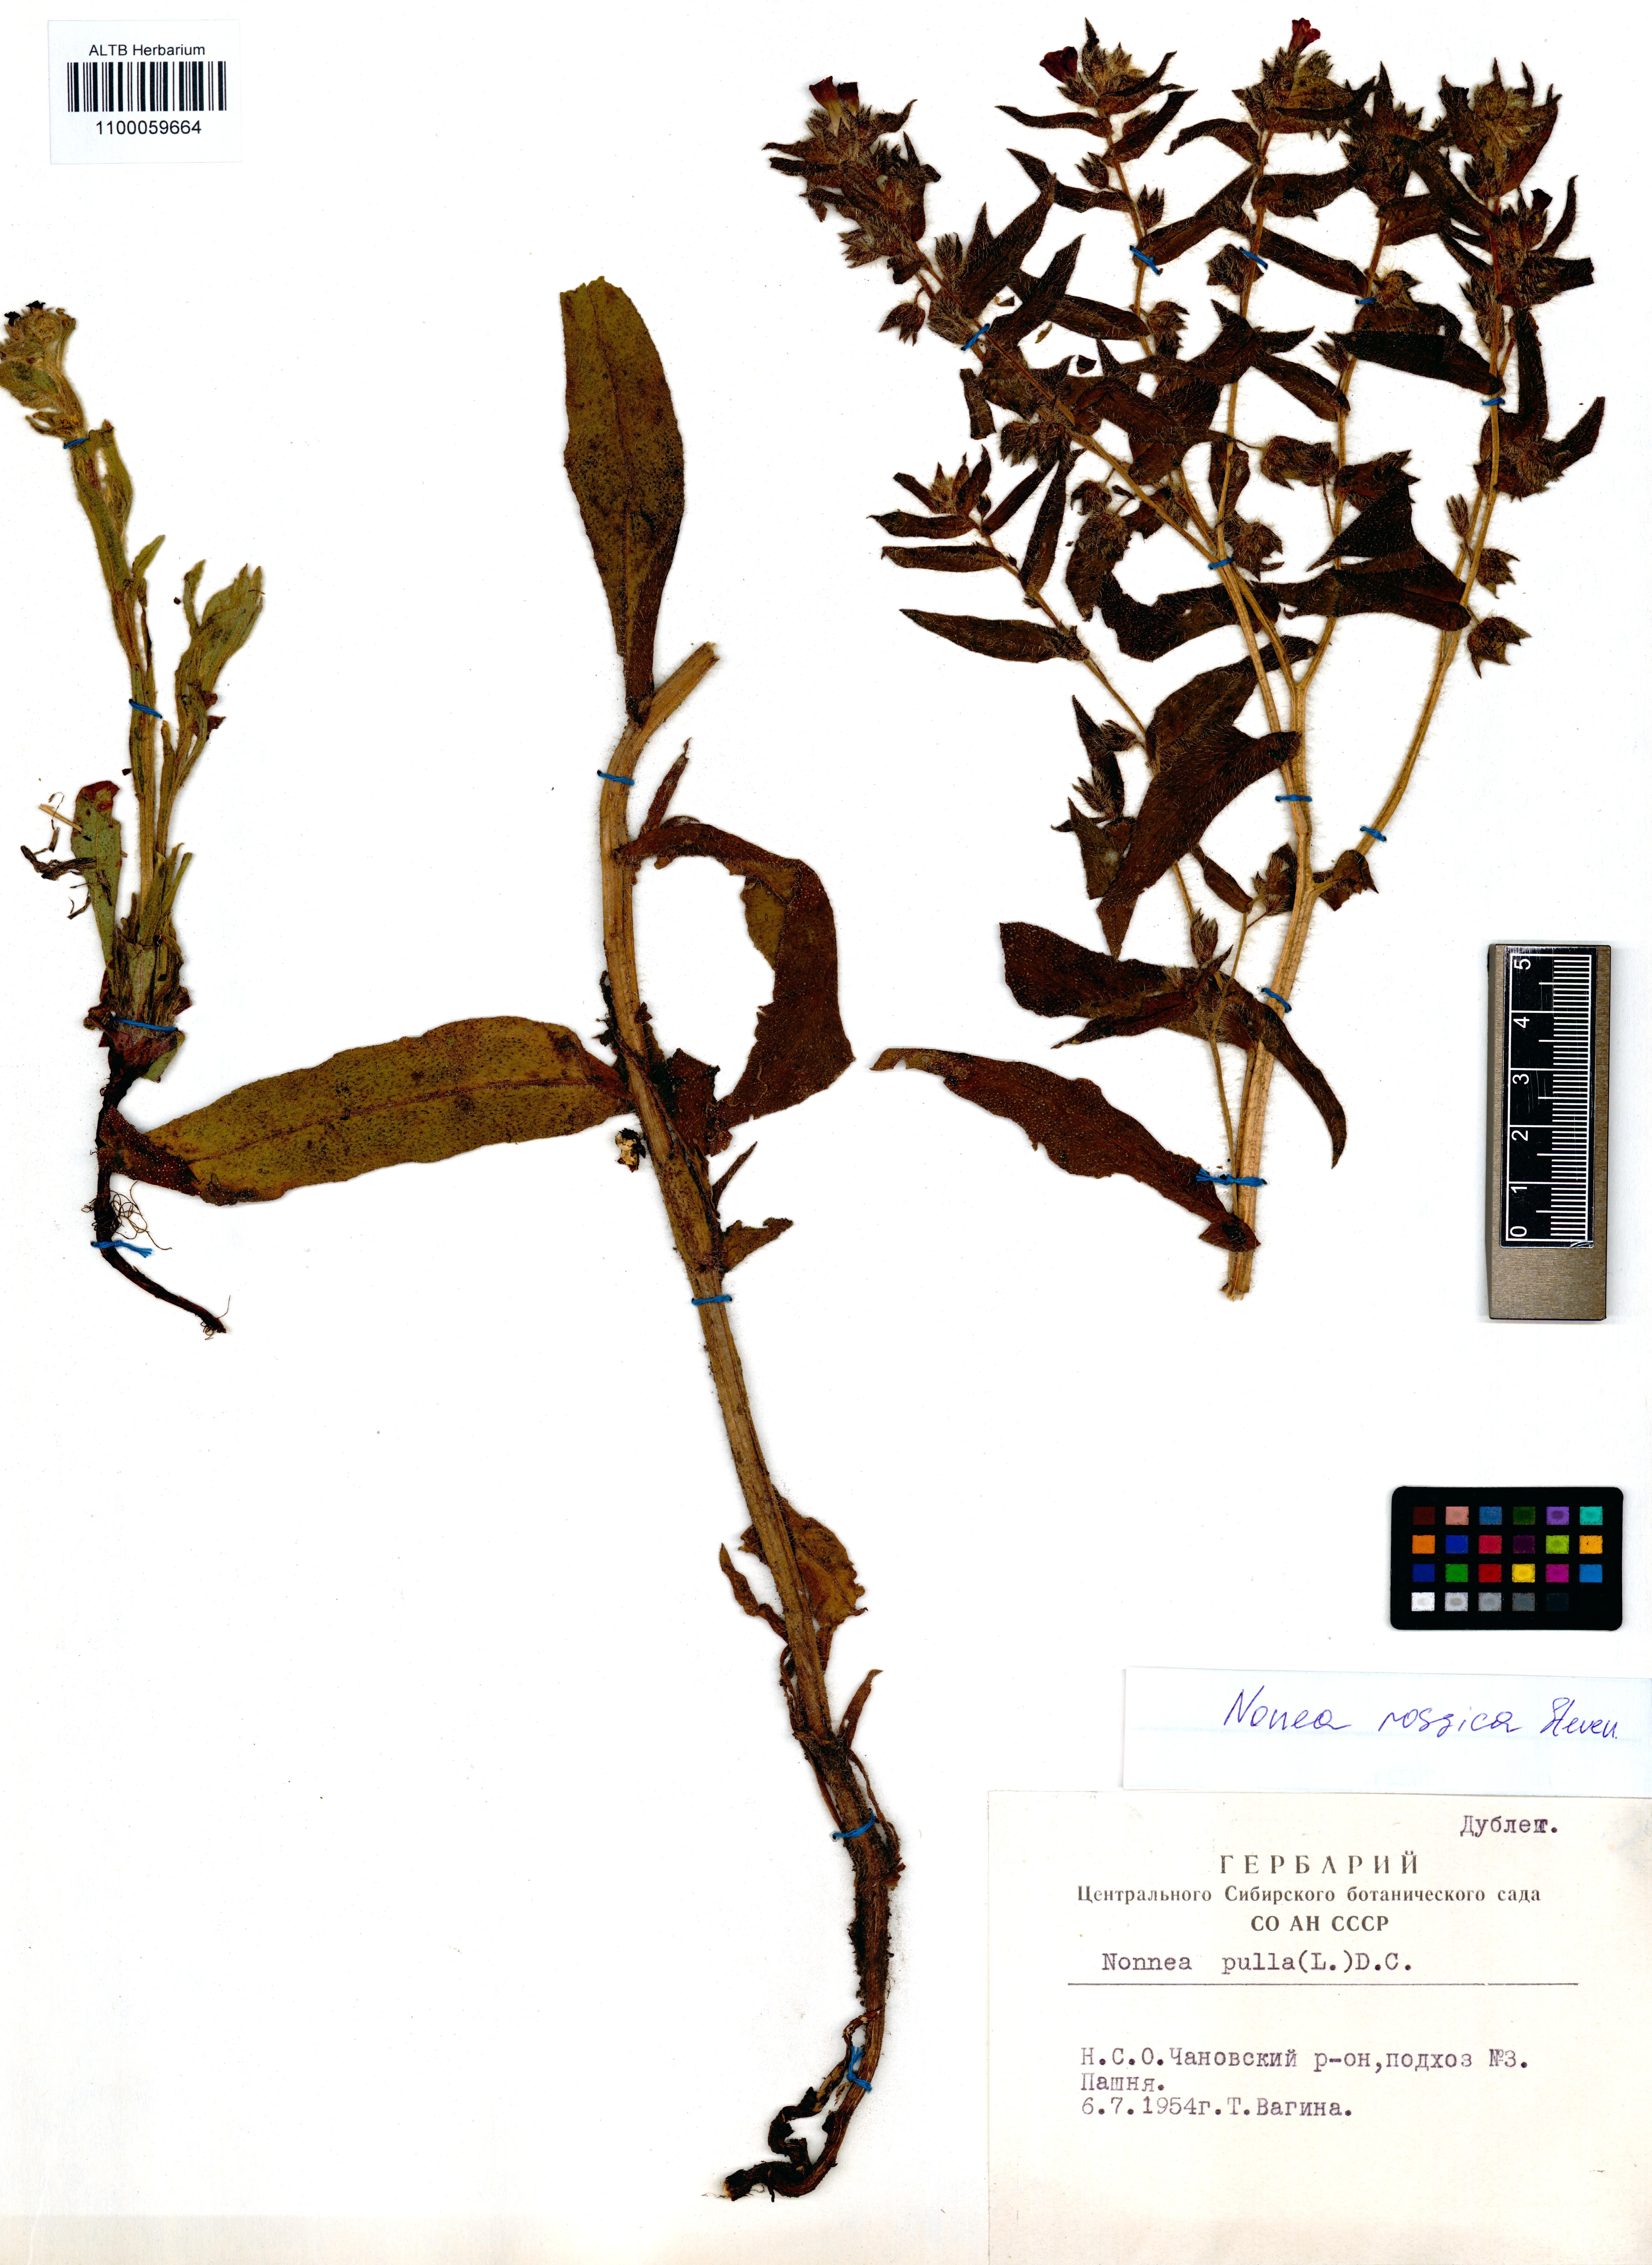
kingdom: Plantae
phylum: Tracheophyta
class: Magnoliopsida
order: Boraginales
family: Boraginaceae
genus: Nonea
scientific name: Nonea pulla
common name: Brown nonea
